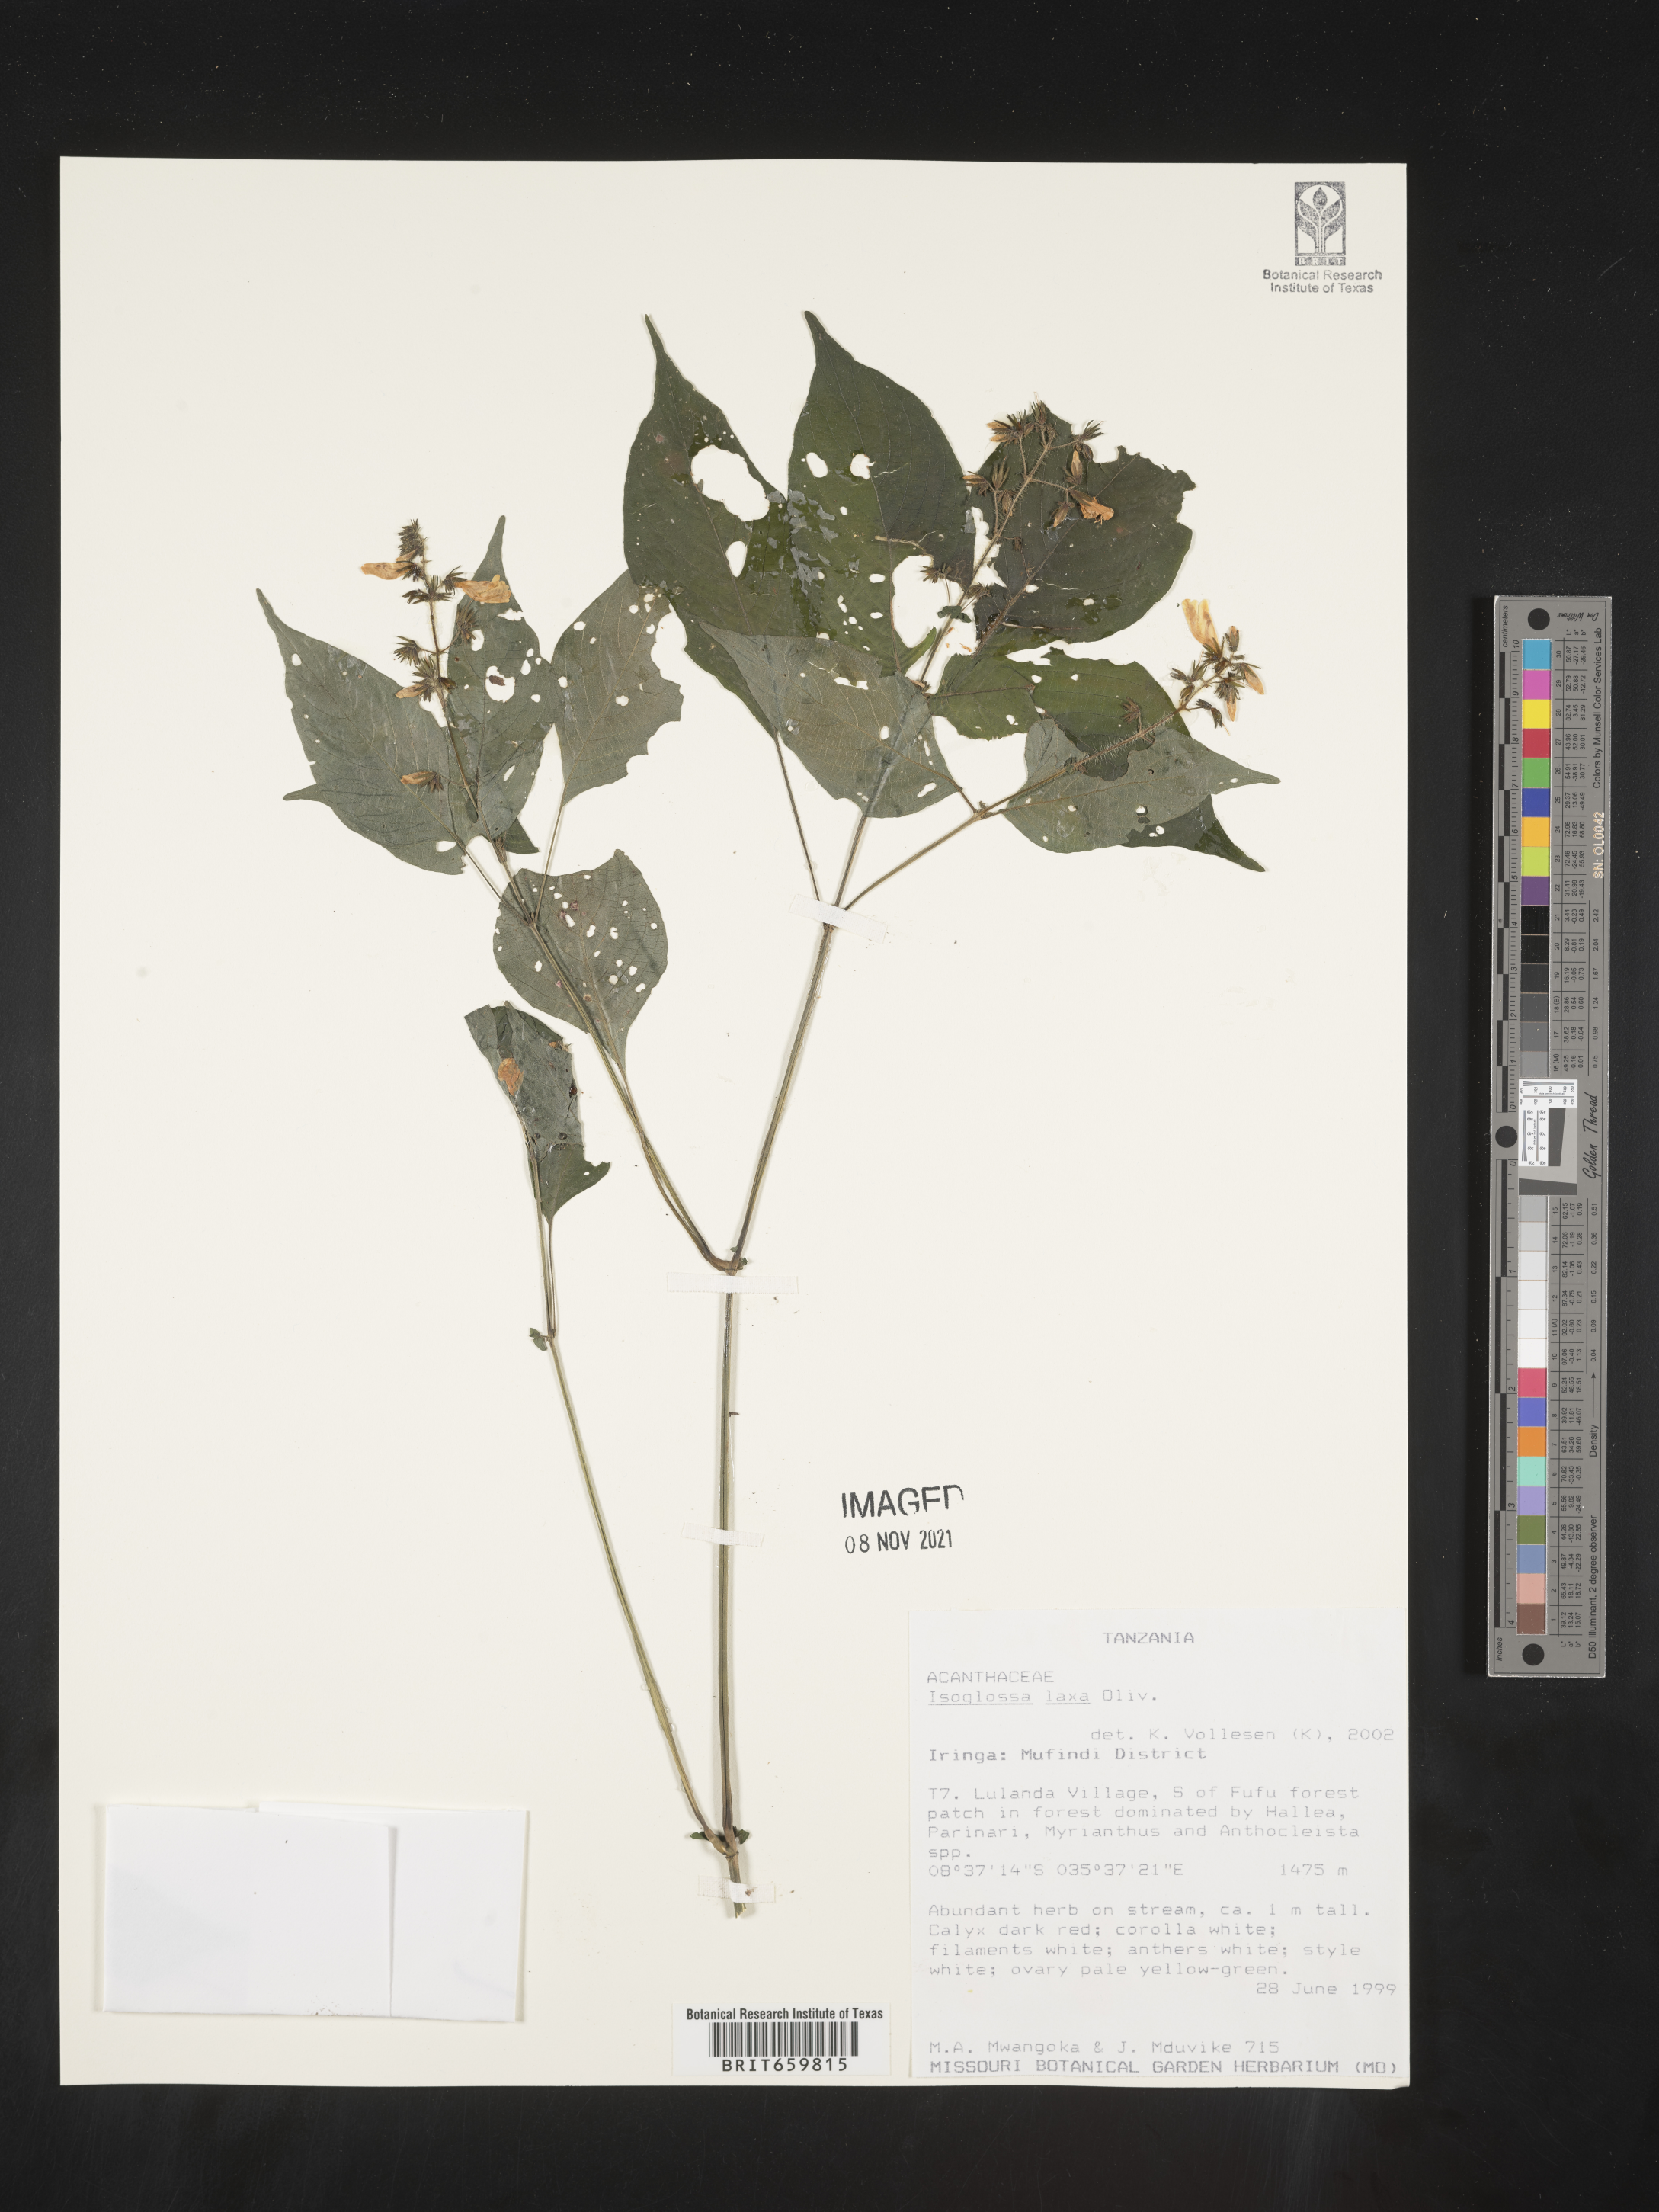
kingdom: Plantae
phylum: Tracheophyta
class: Magnoliopsida
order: Lamiales
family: Acanthaceae
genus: Isoglossa
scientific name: Isoglossa laxa
